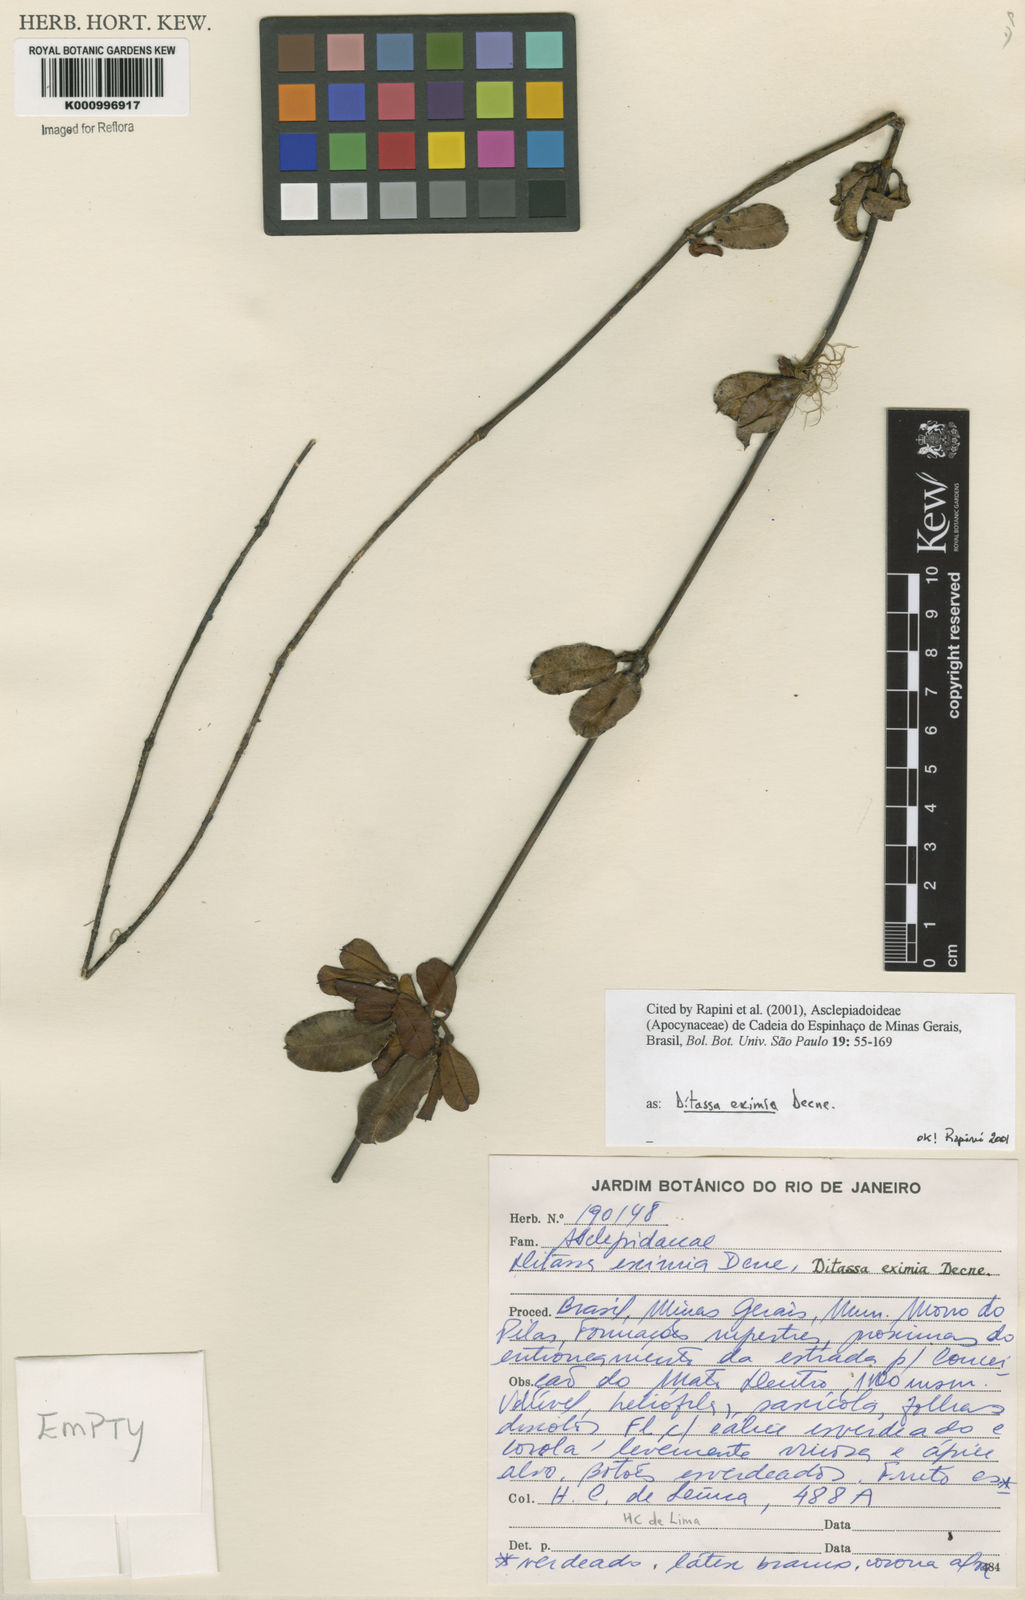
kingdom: Plantae
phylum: Tracheophyta
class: Magnoliopsida
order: Gentianales
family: Apocynaceae
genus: Ditassa
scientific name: Ditassa eximia
